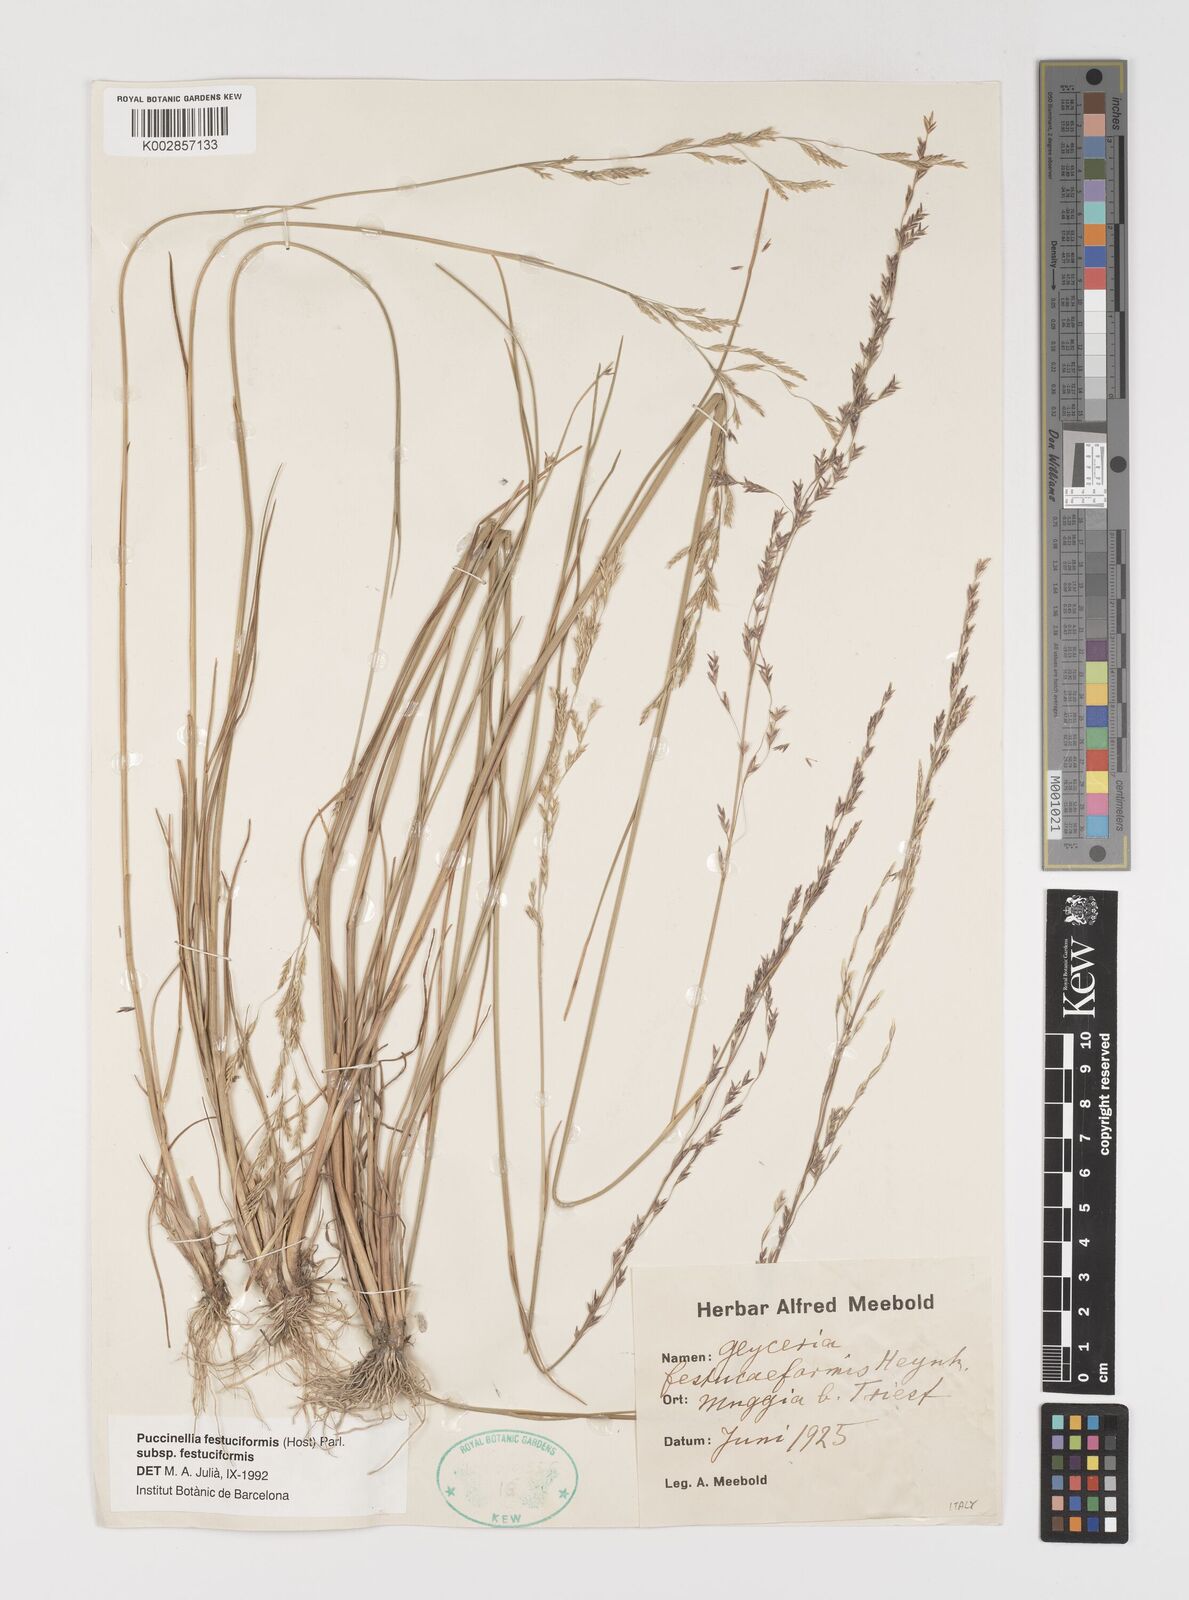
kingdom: Plantae
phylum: Tracheophyta
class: Liliopsida
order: Poales
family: Poaceae
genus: Puccinellia
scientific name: Puccinellia festuciformis
